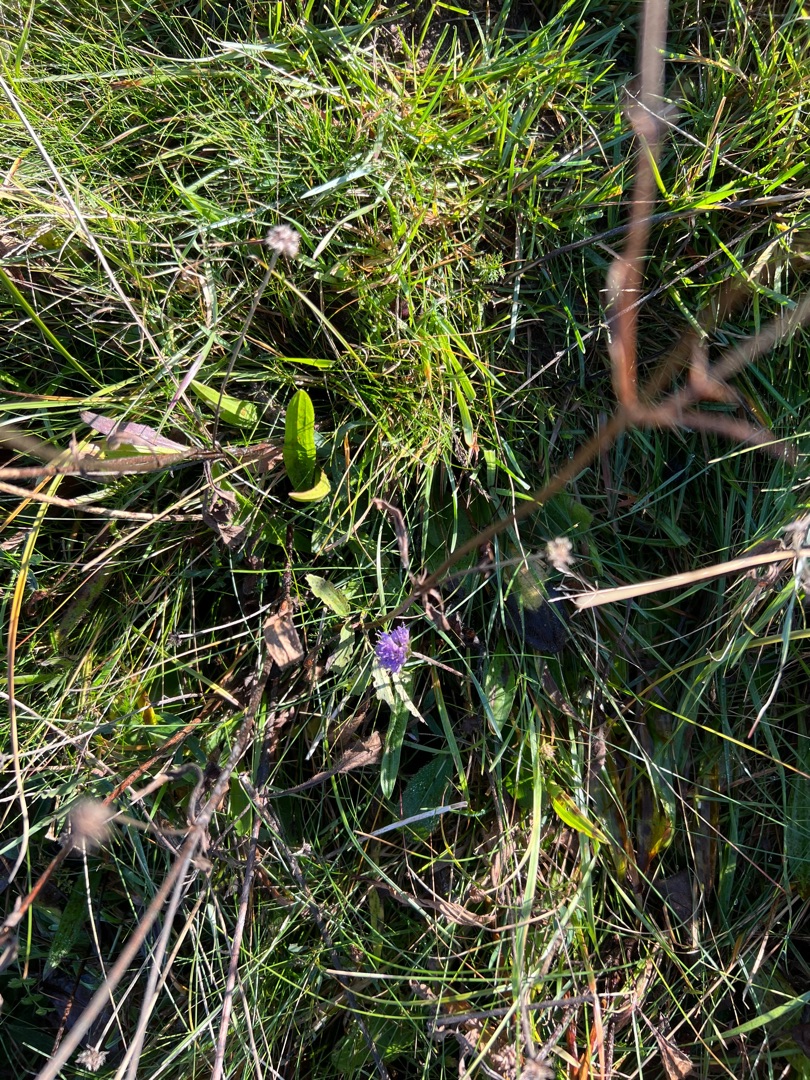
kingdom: Plantae
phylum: Tracheophyta
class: Magnoliopsida
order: Dipsacales
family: Caprifoliaceae
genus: Succisa
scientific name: Succisa pratensis
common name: Djævelsbid
